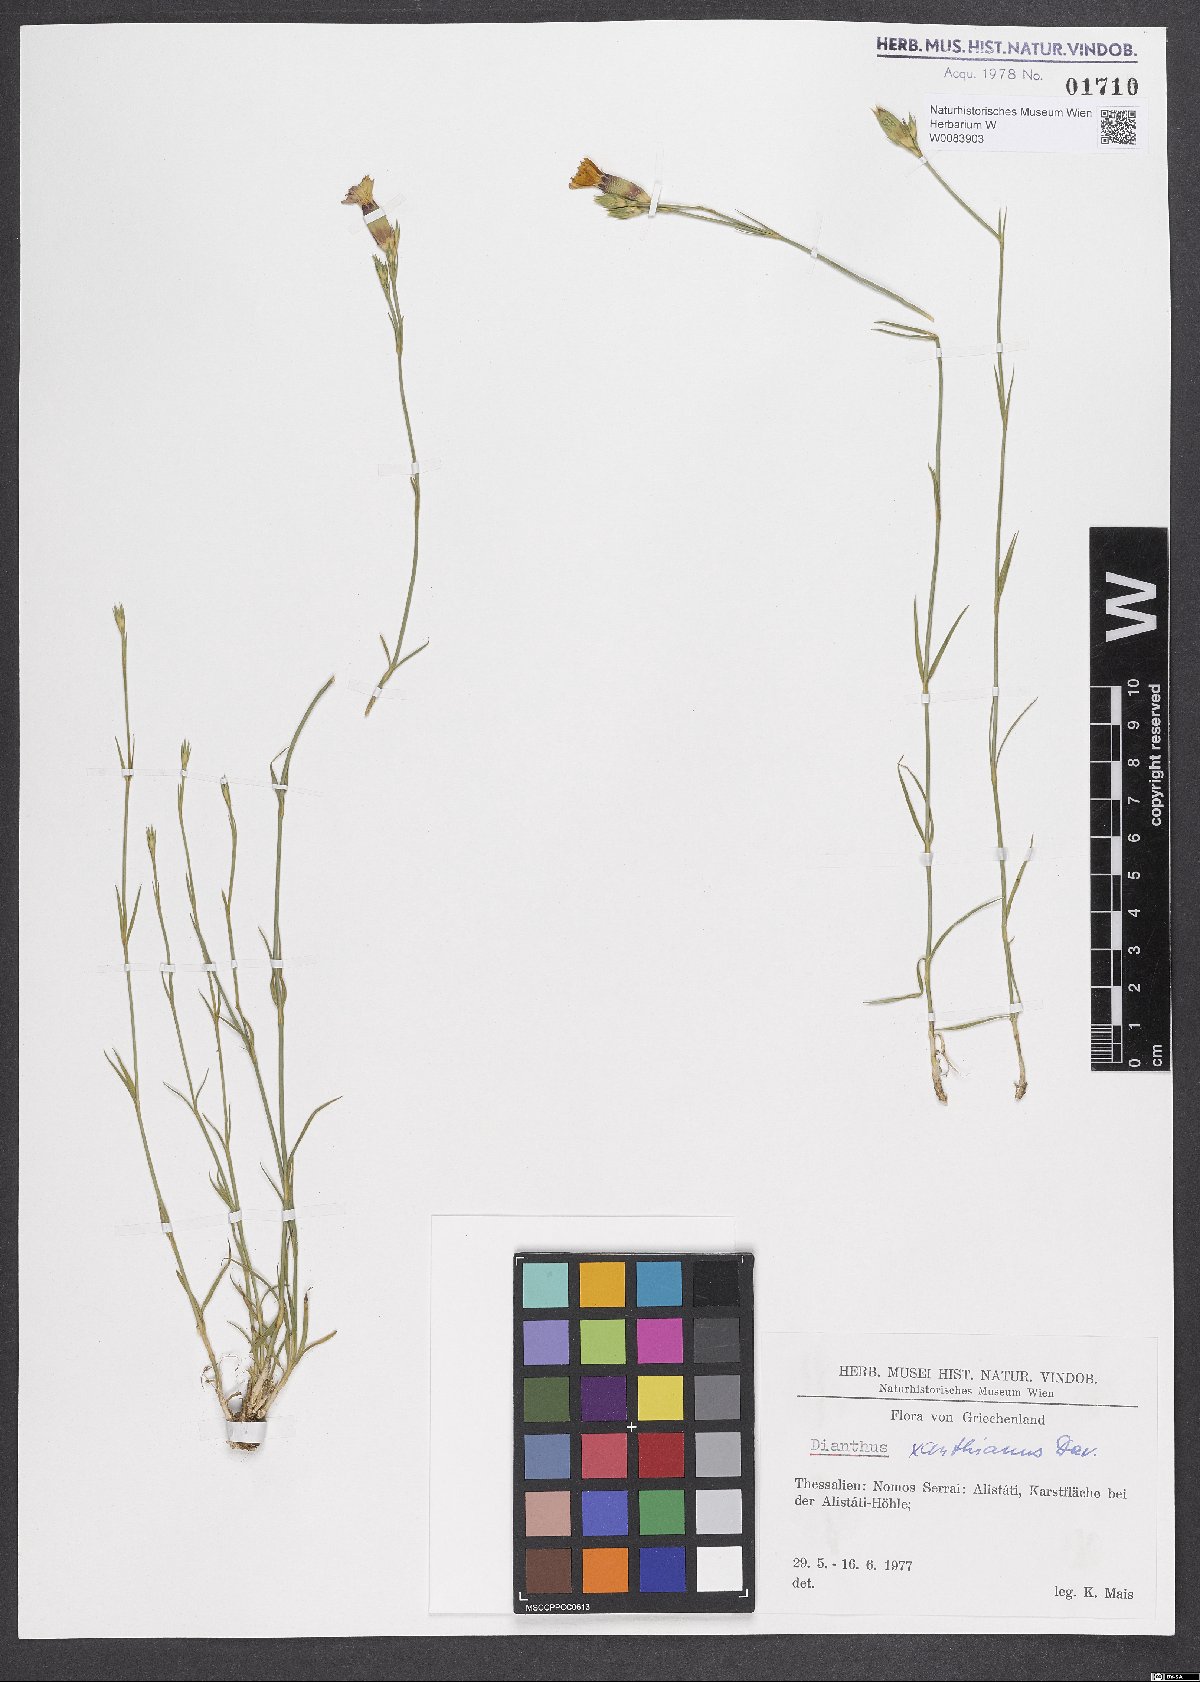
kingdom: Plantae
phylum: Tracheophyta
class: Magnoliopsida
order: Caryophyllales
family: Caryophyllaceae
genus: Dianthus
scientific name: Dianthus gracilis
